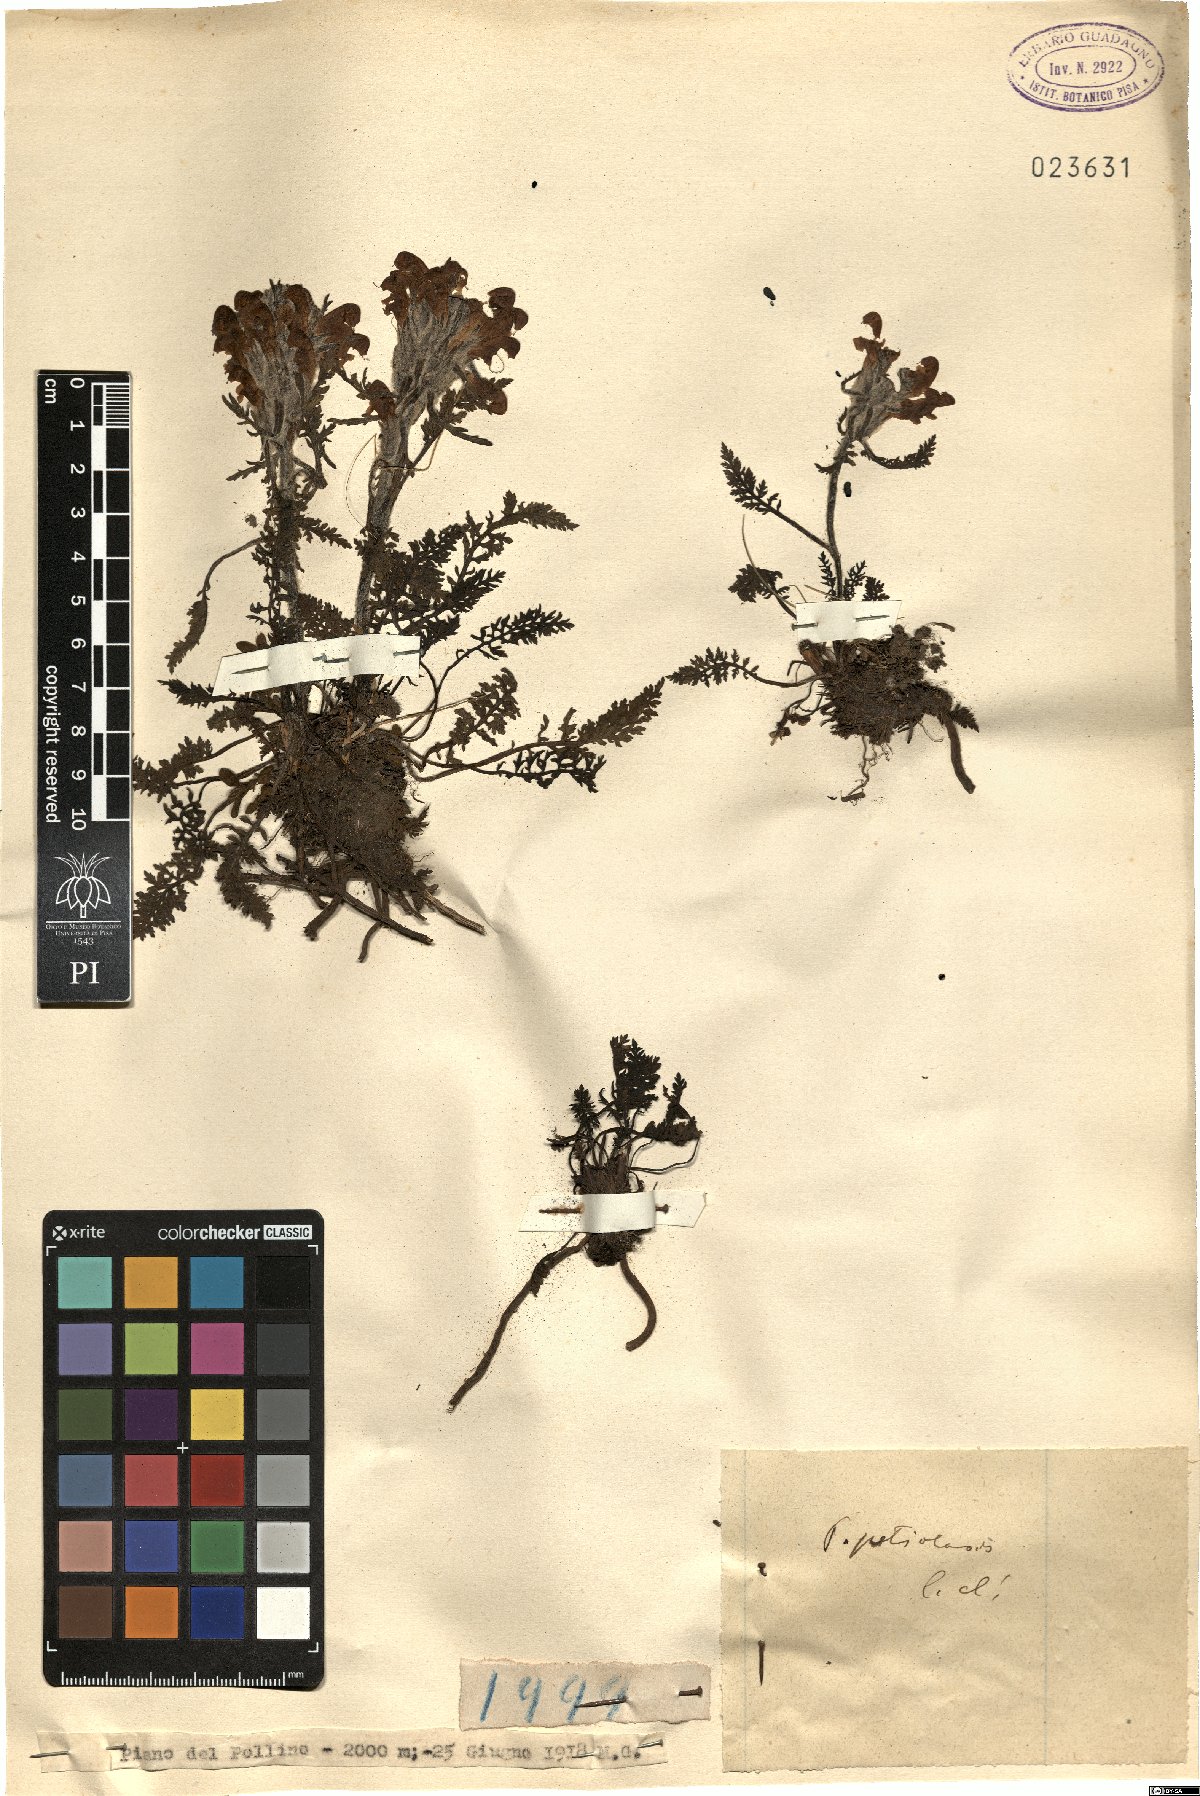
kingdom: Plantae
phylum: Tracheophyta
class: Magnoliopsida
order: Lamiales
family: Orobanchaceae
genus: Pedicularis
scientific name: Pedicularis petiolaris
